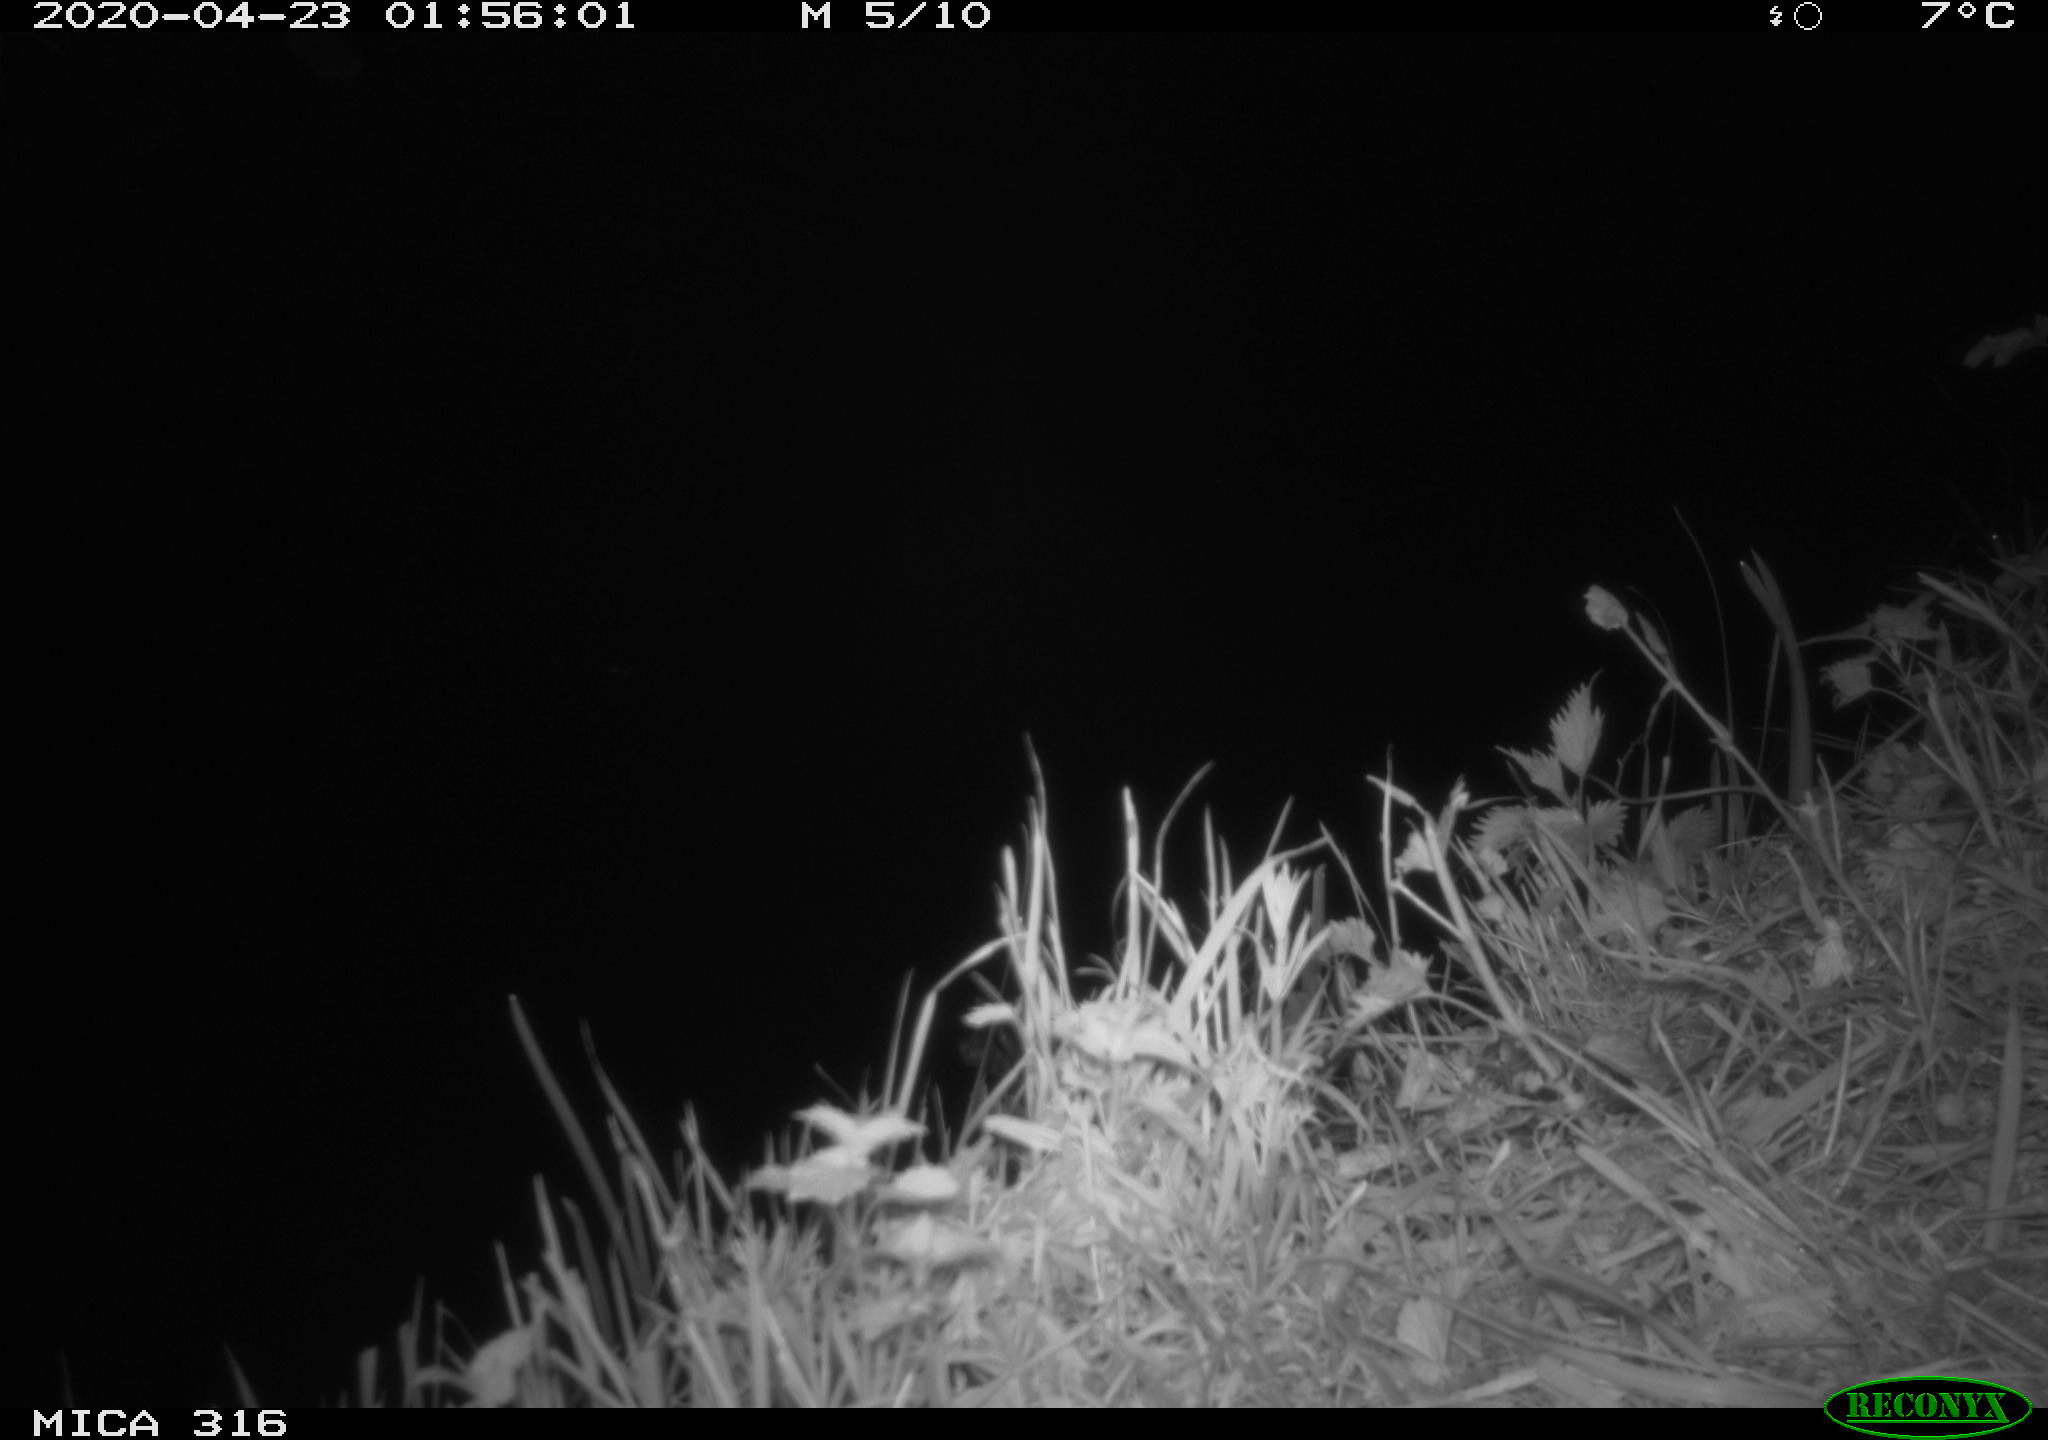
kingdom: Animalia
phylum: Chordata
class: Mammalia
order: Rodentia
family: Muridae
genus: Rattus
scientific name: Rattus norvegicus
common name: Brown rat
